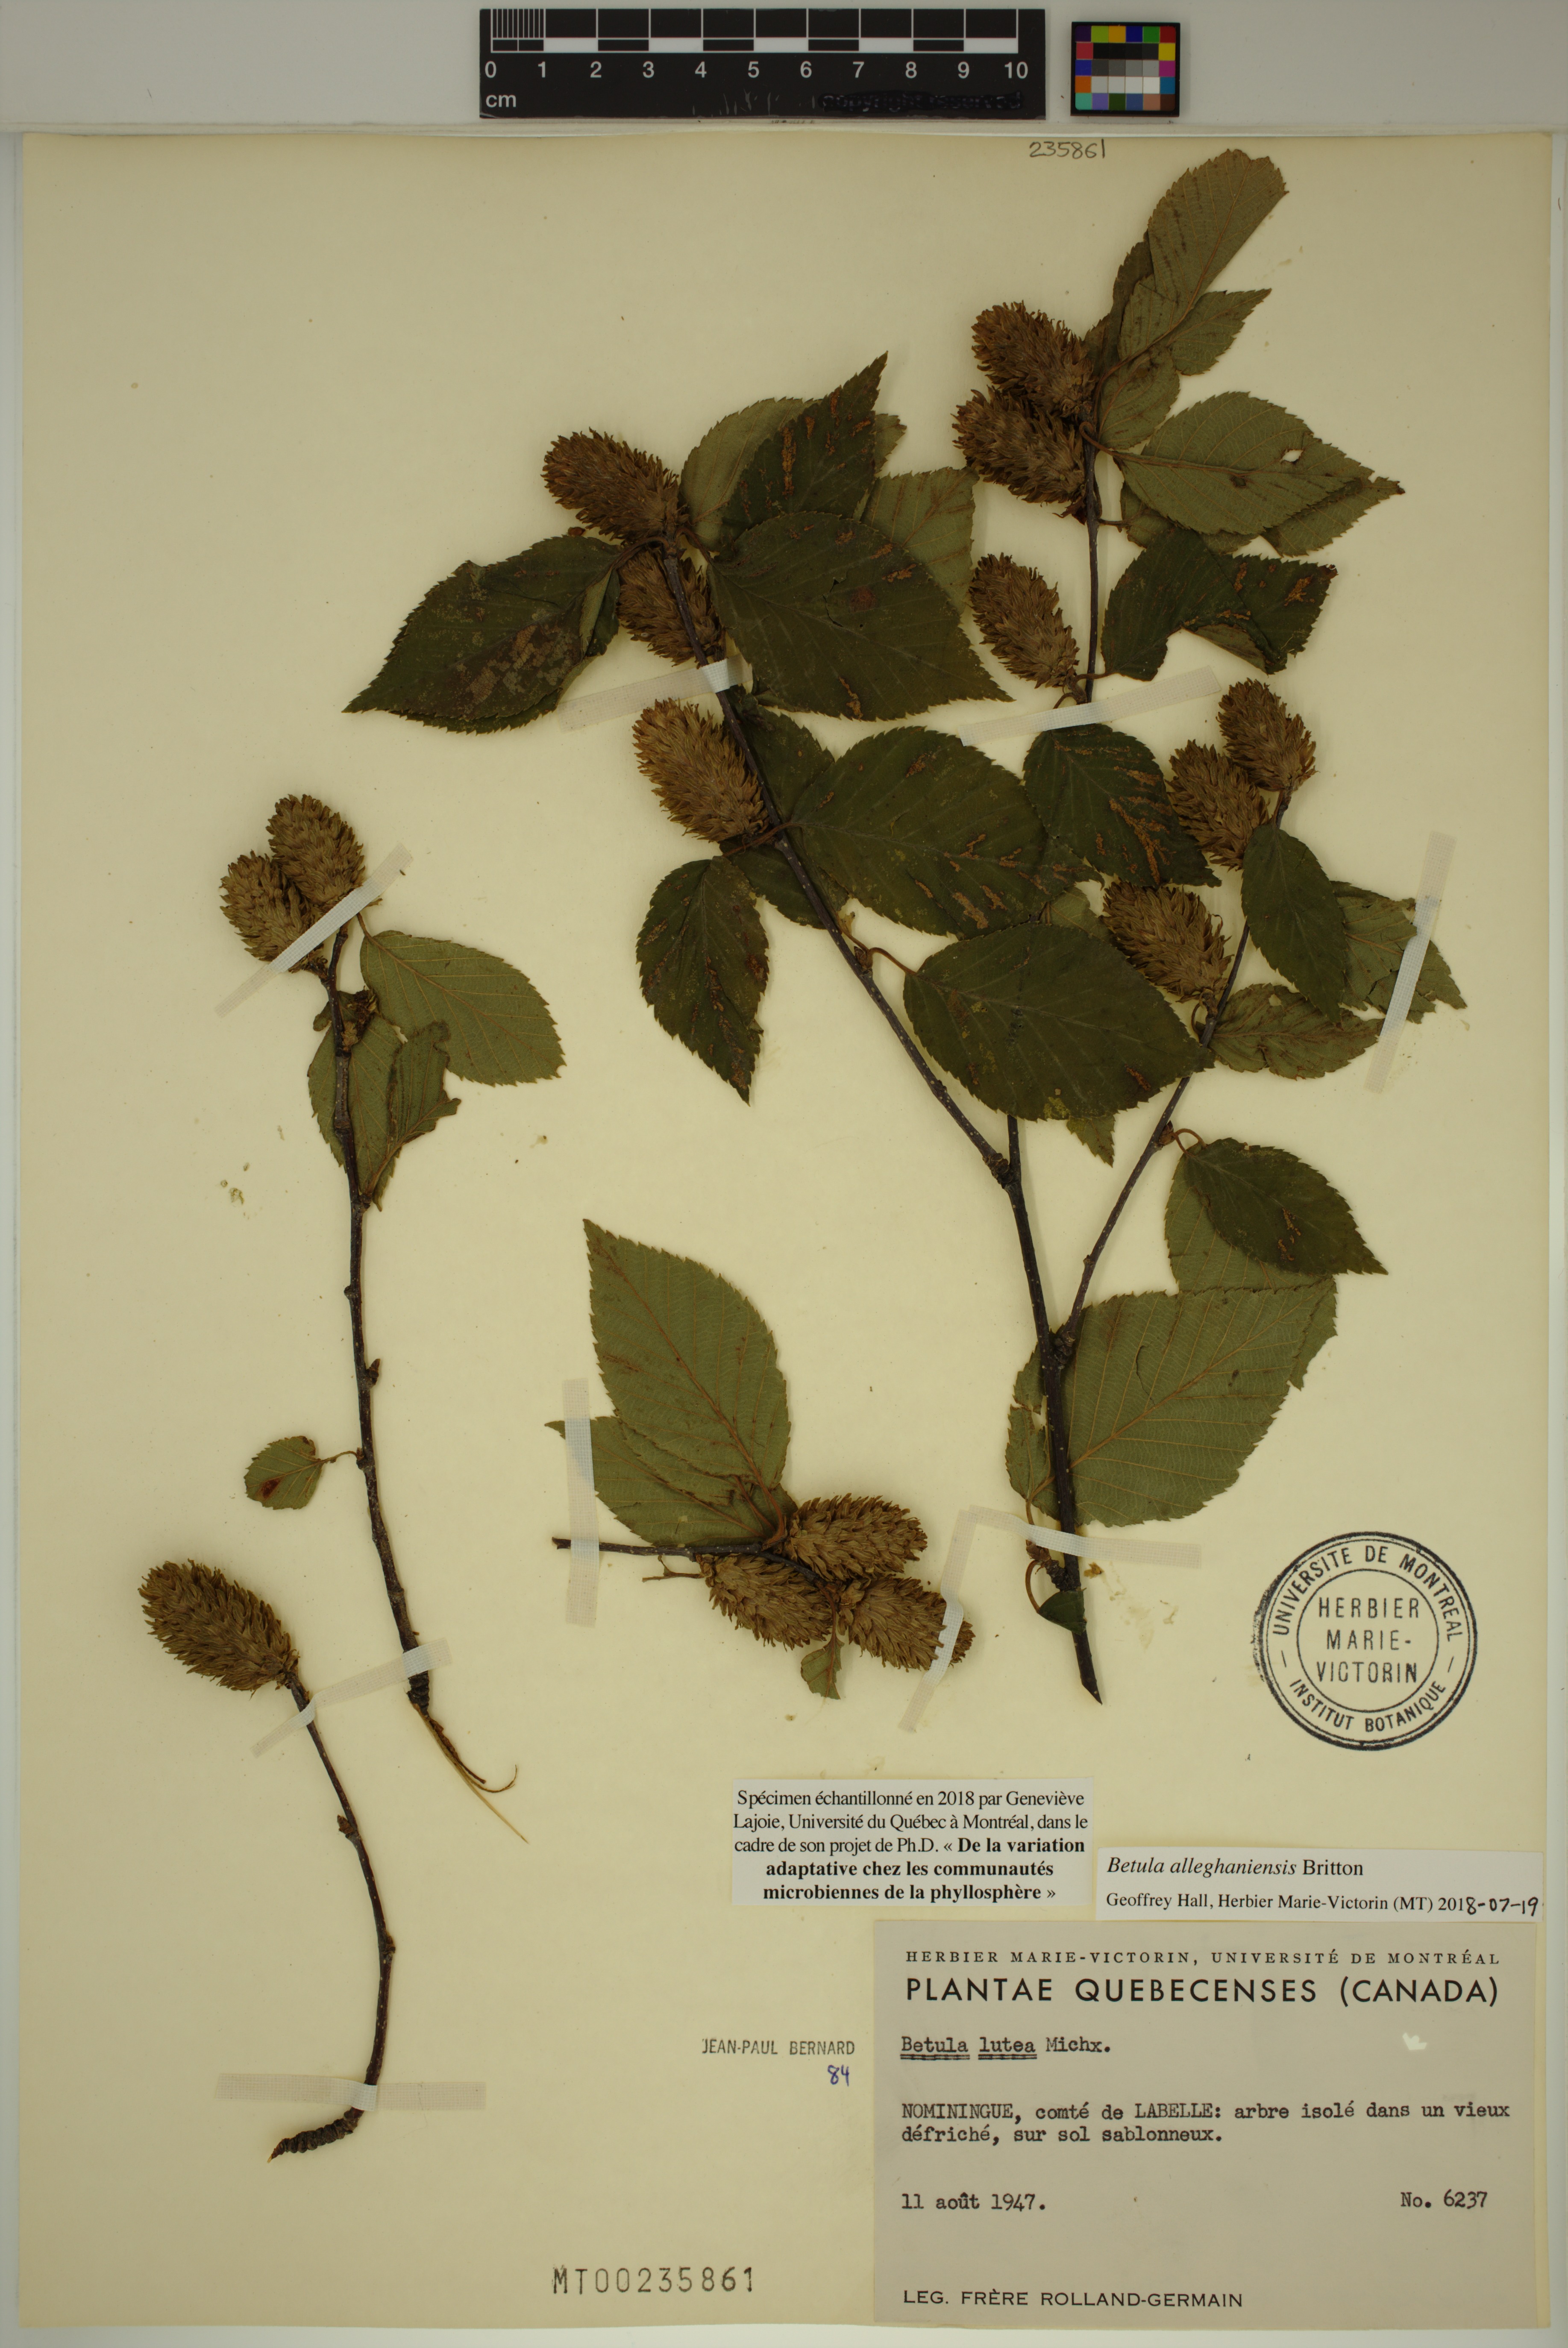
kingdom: Plantae
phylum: Tracheophyta
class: Magnoliopsida
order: Fagales
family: Betulaceae
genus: Betula
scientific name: Betula alleghaniensis
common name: Yellow birch
